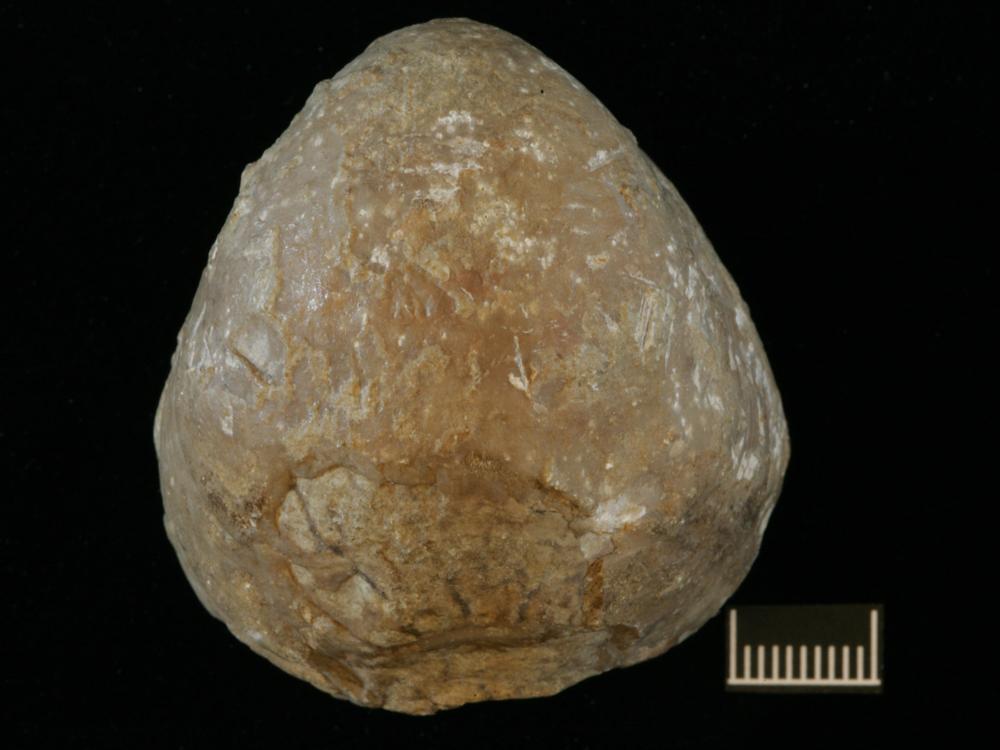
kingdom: Animalia
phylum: Brachiopoda
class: Rhynchonellata
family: Porambonitidae
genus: Porambonites
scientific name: Porambonites
